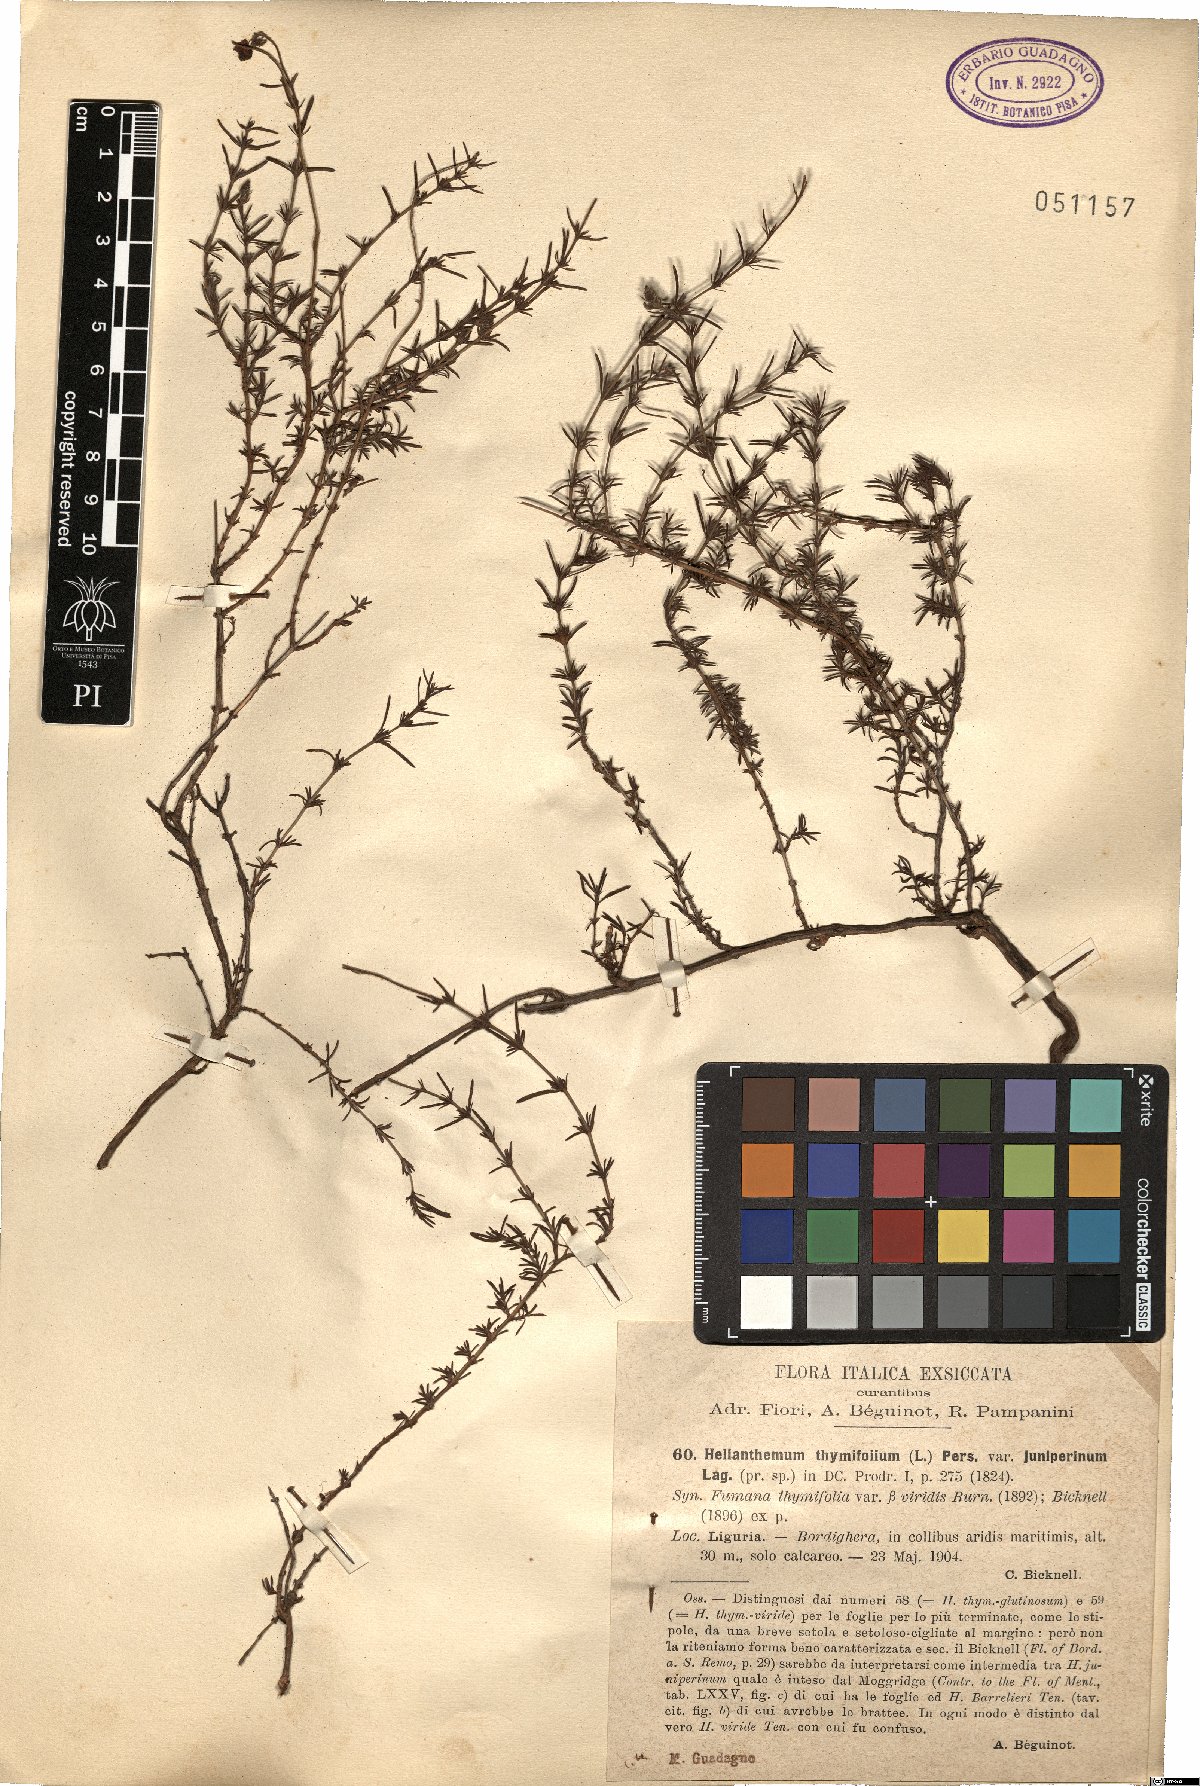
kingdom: Plantae
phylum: Tracheophyta
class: Magnoliopsida
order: Malvales
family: Cistaceae
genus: Fumana
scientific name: Fumana juniperina
